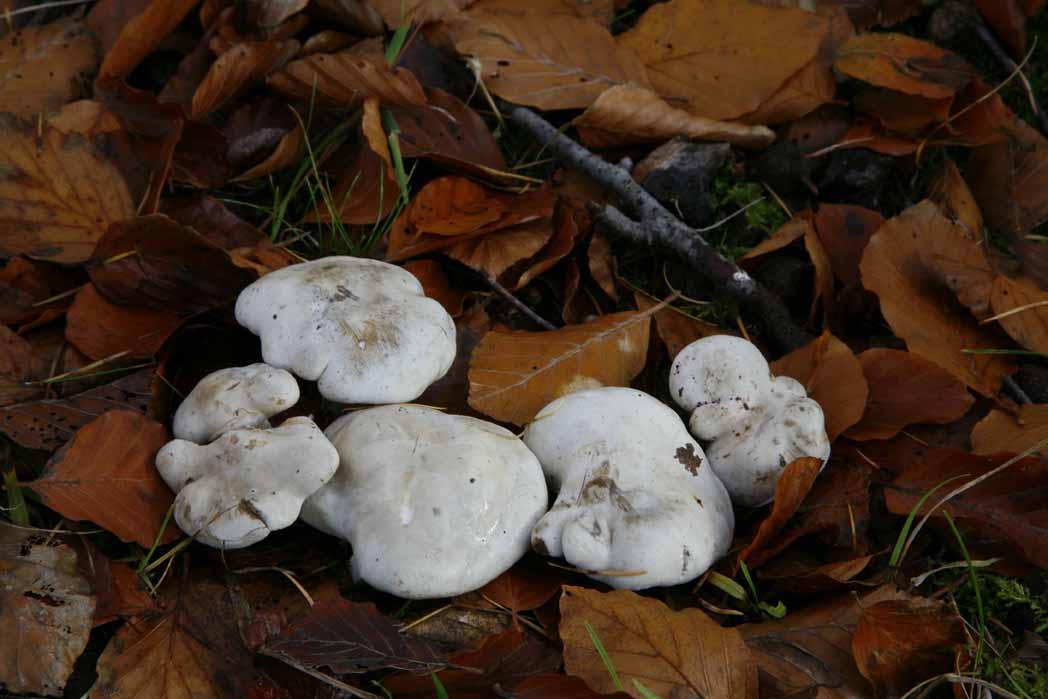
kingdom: Fungi
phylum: Basidiomycota
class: Agaricomycetes
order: Agaricales
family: Entolomataceae
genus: Clitopilus
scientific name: Clitopilus prunulus
